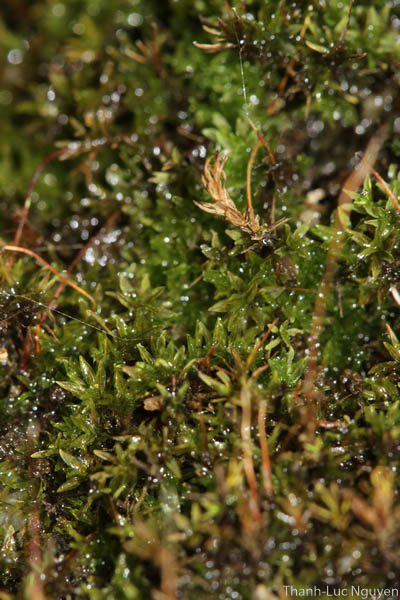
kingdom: Plantae
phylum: Bryophyta
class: Bryopsida
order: Pottiales
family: Pottiaceae
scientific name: Pottiaceae
